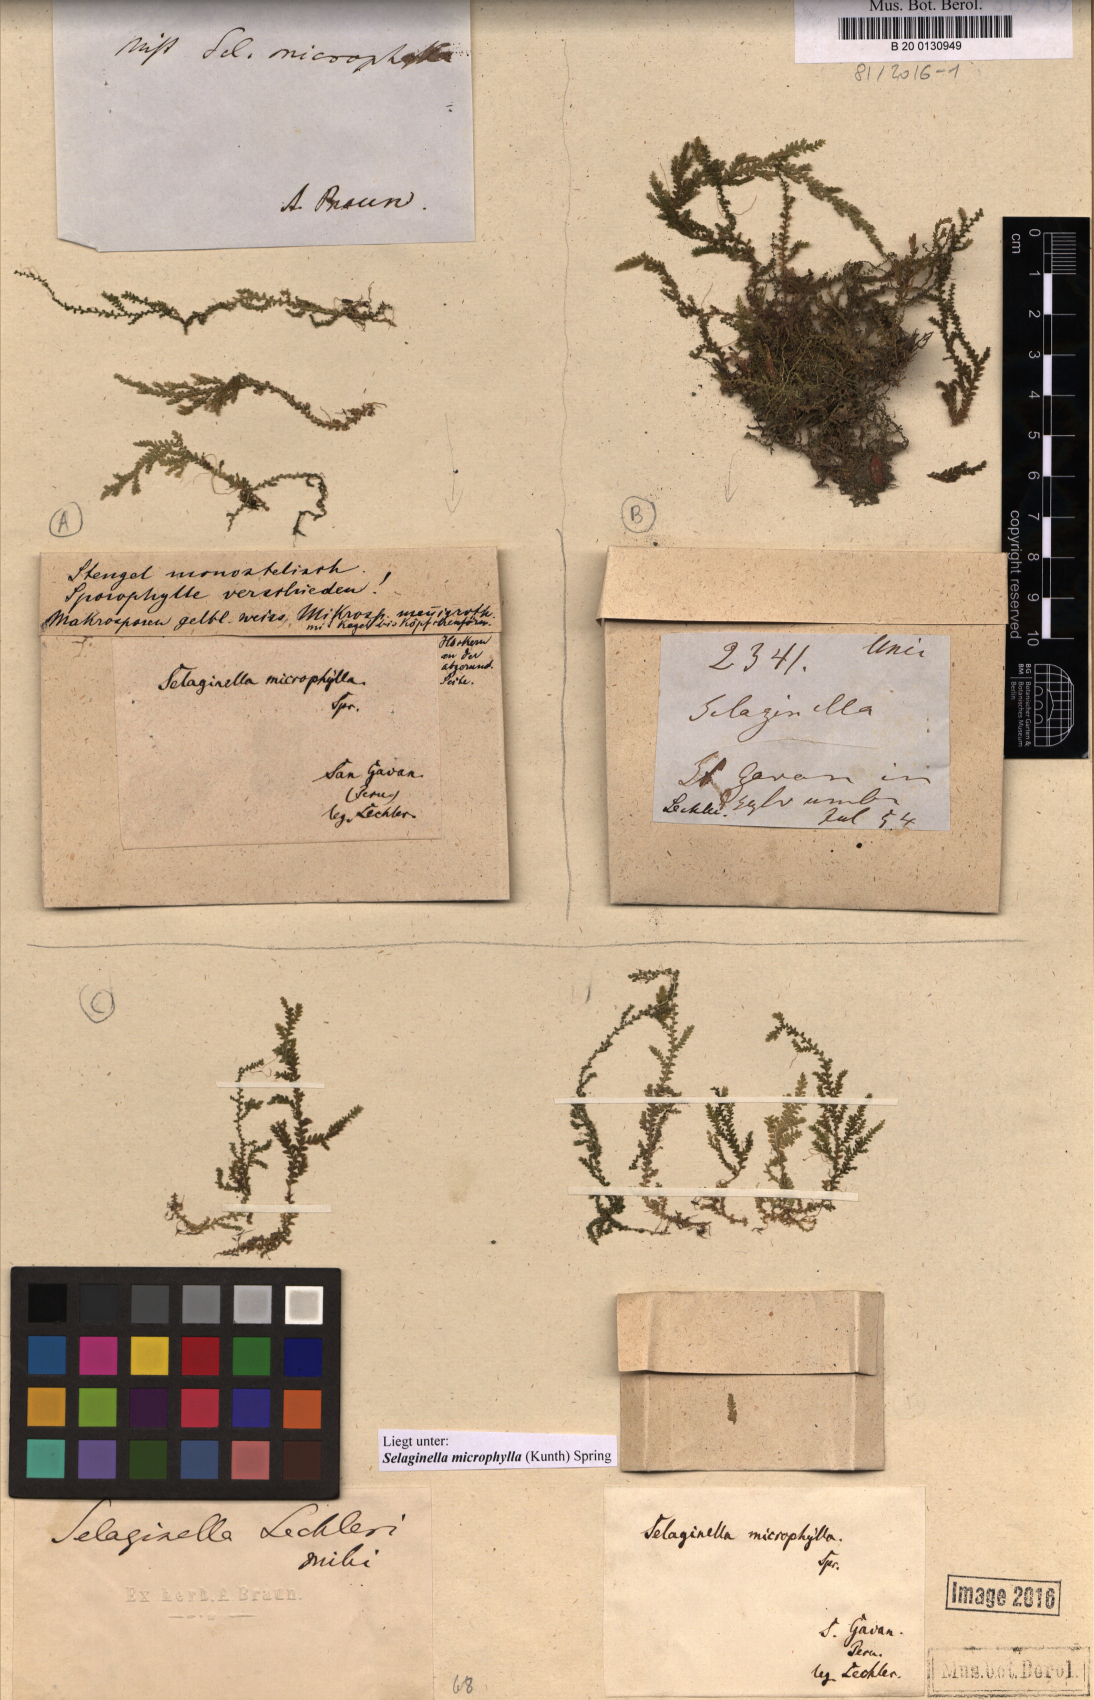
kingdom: Plantae
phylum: Tracheophyta
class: Lycopodiopsida
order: Selaginellales
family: Selaginellaceae
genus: Selaginella
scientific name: Selaginella microphylla
